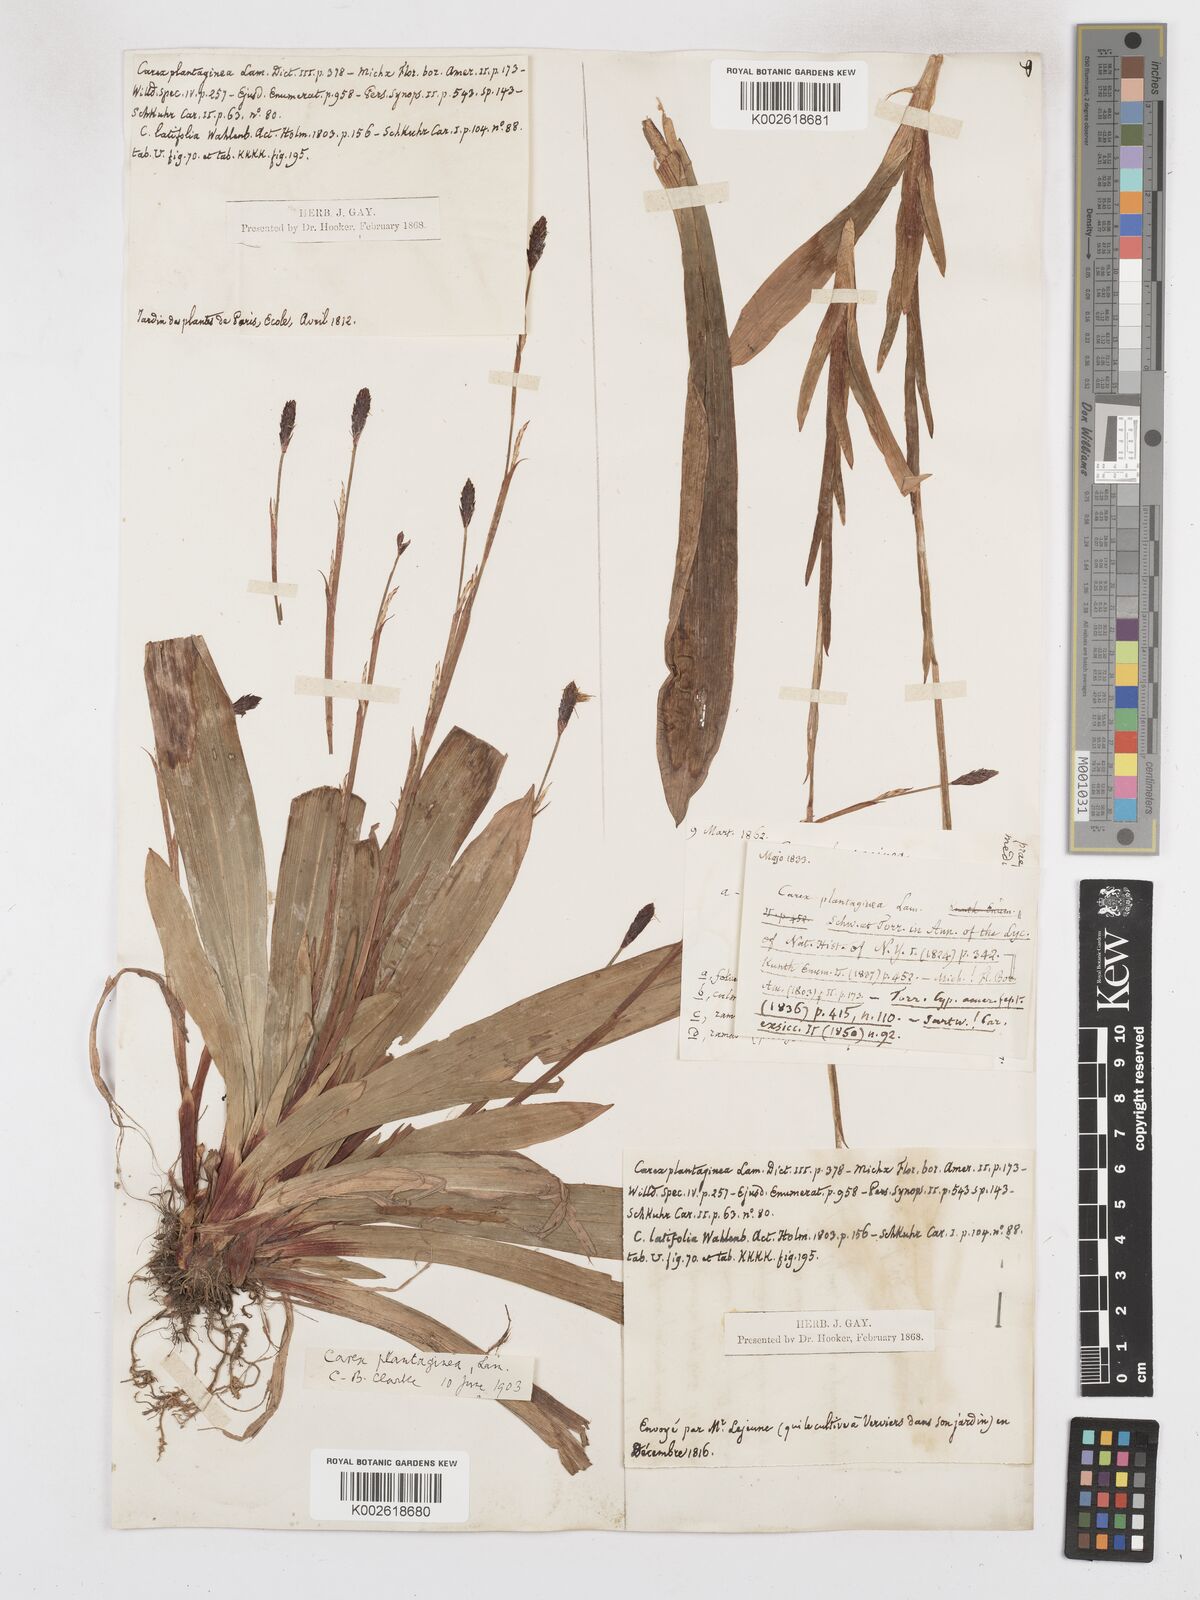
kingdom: Plantae
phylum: Tracheophyta
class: Liliopsida
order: Poales
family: Cyperaceae
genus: Carex
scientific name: Carex plantaginea
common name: Plantain-leaved sedge
